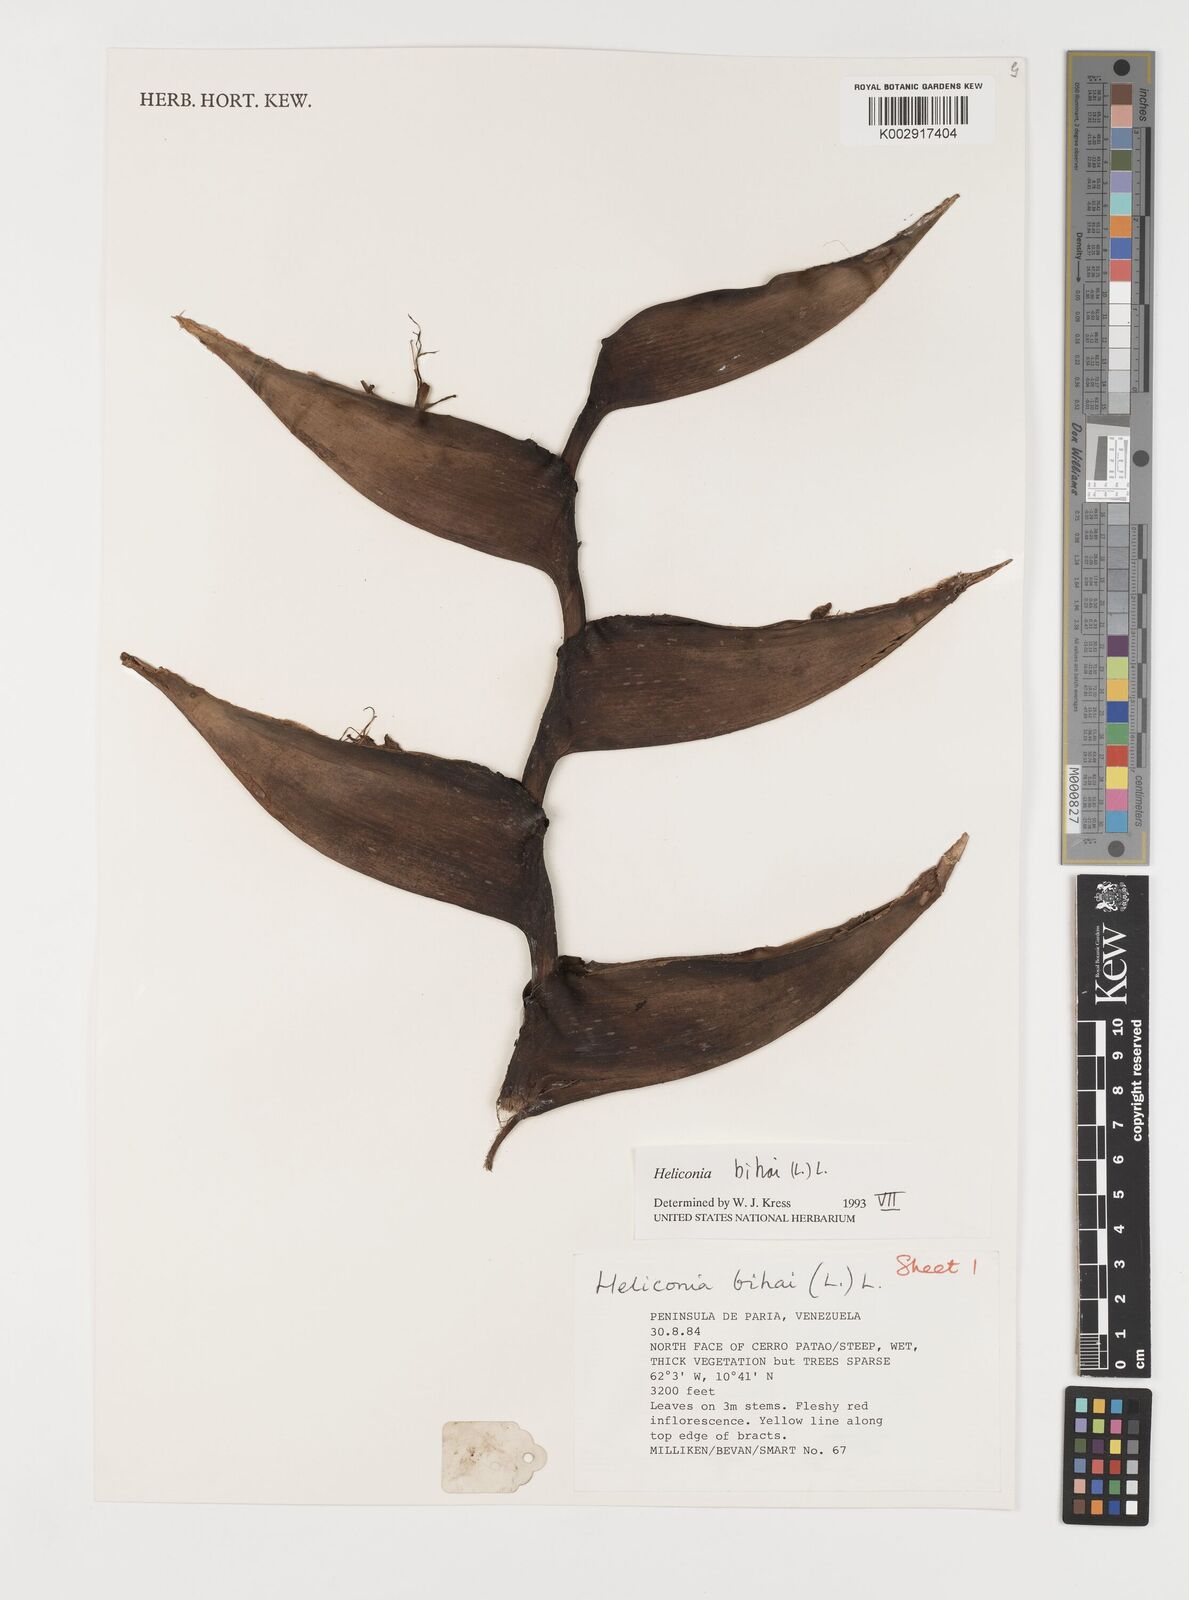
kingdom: Plantae
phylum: Tracheophyta
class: Liliopsida
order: Zingiberales
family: Heliconiaceae
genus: Heliconia
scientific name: Heliconia bihai
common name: Macaw flower
